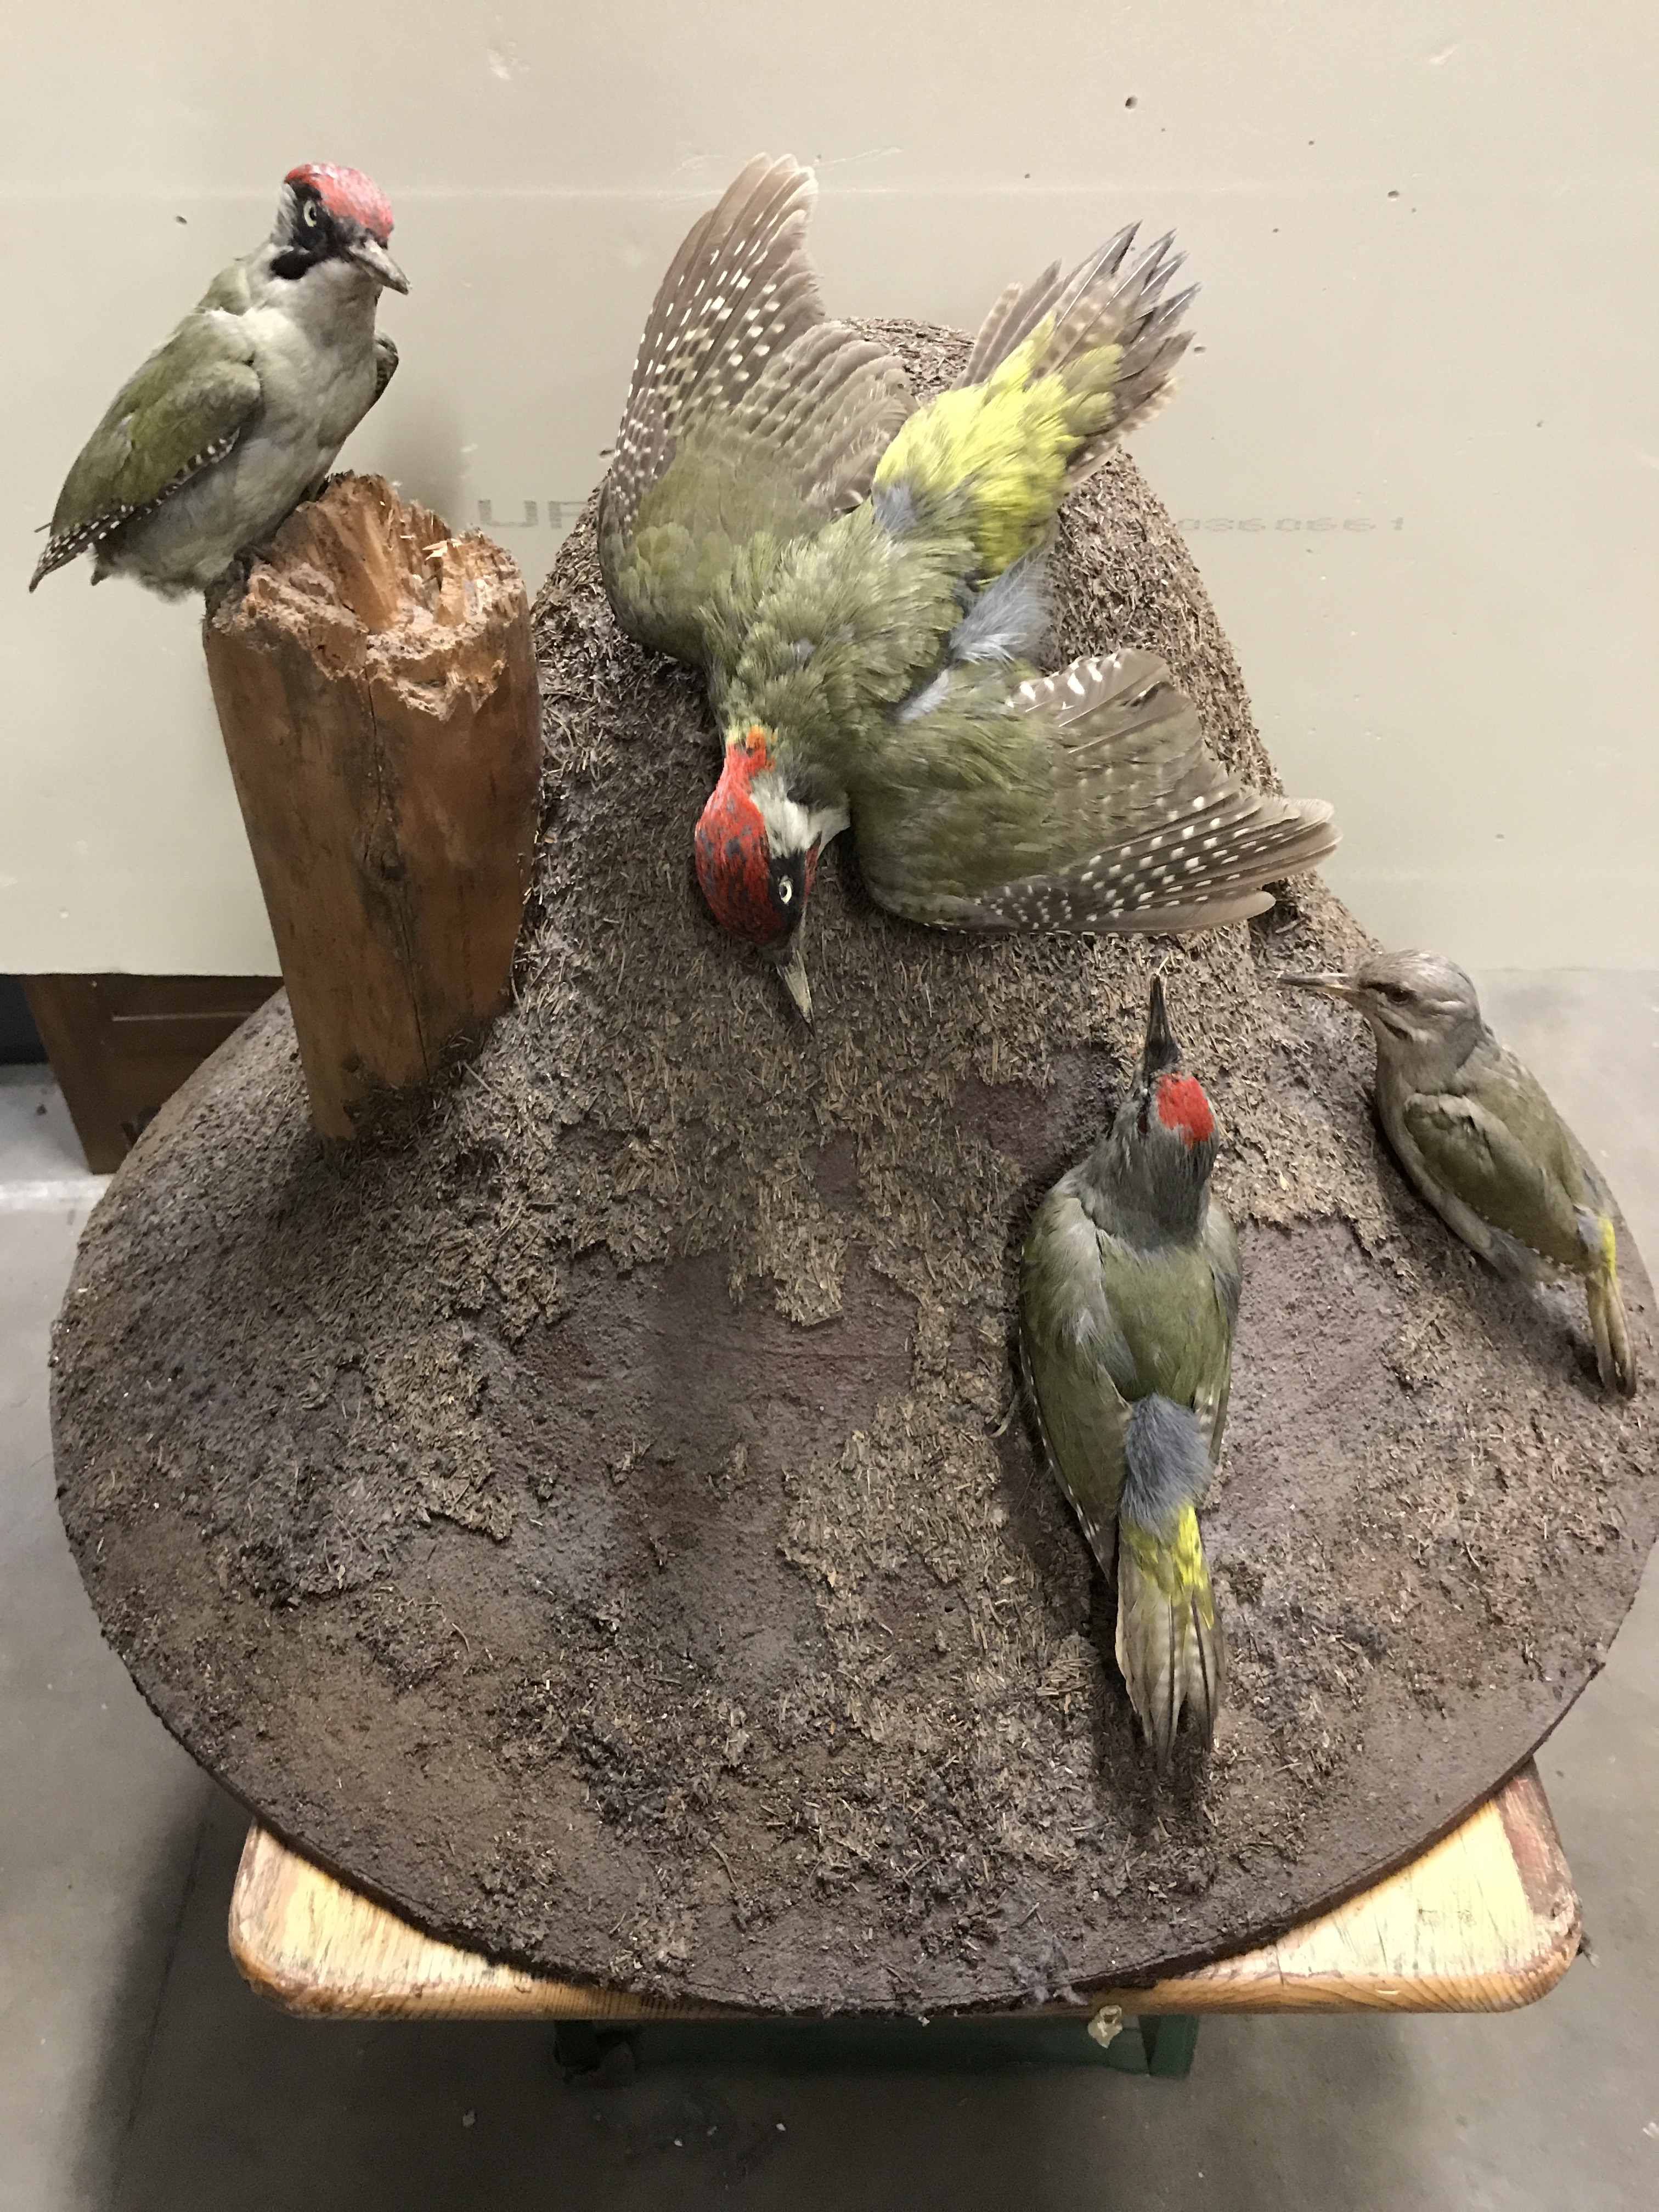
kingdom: Animalia
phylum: Chordata
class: Aves
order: Piciformes
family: Picidae
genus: Picus
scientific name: Picus canus
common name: Grey-headed woodpecker
